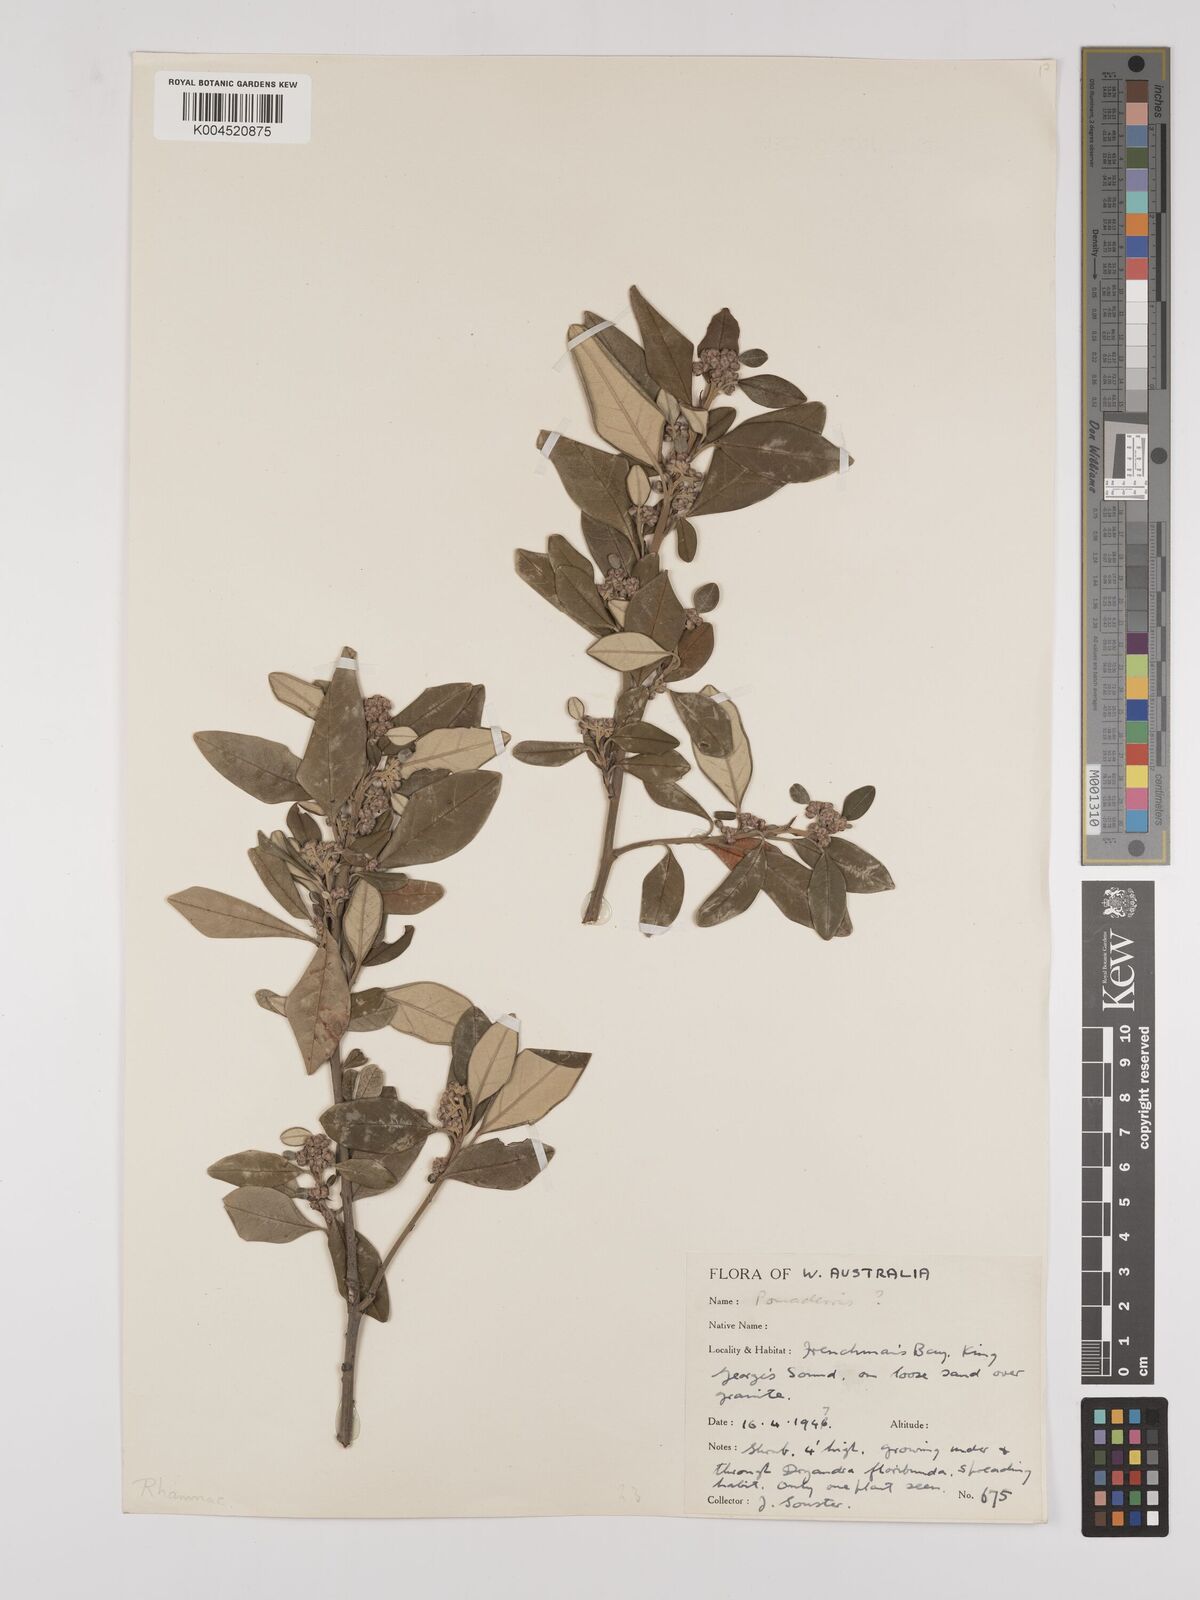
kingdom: Plantae
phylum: Tracheophyta
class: Magnoliopsida
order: Rosales
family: Rhamnaceae
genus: Pomaderris
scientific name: Pomaderris
